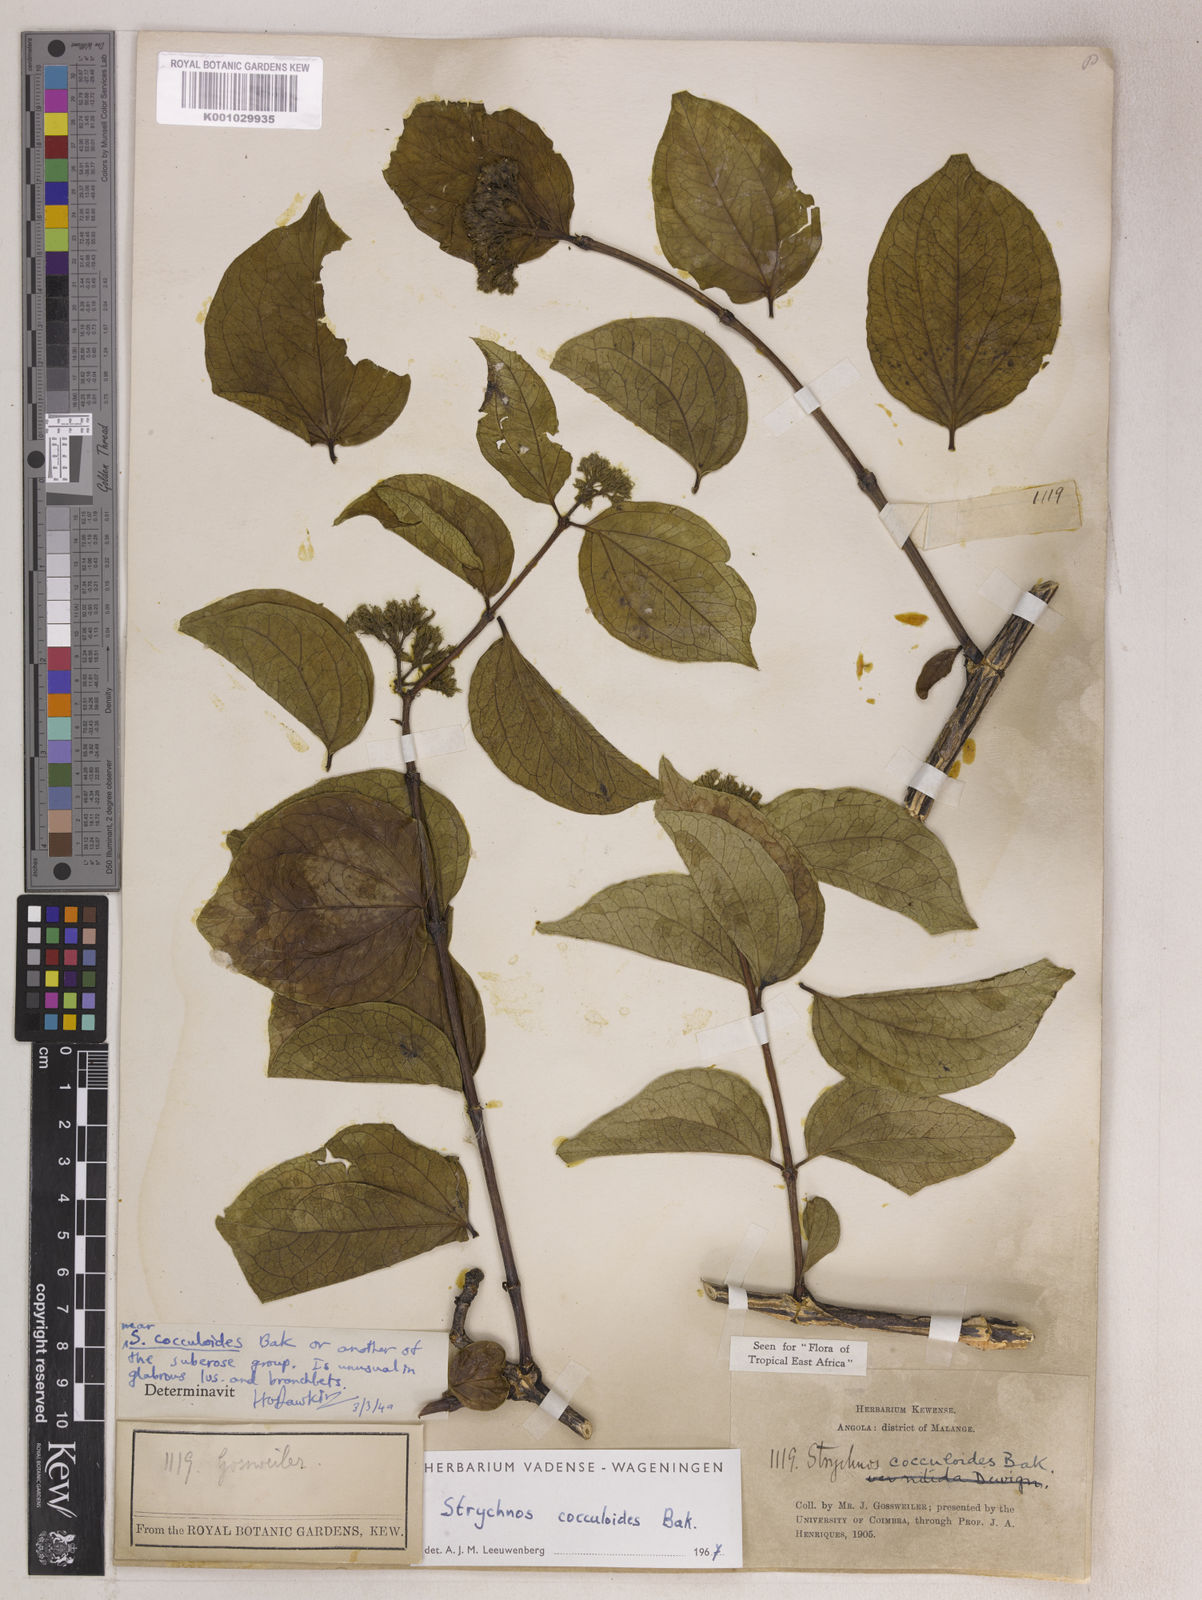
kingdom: Plantae
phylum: Tracheophyta
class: Magnoliopsida
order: Gentianales
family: Loganiaceae
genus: Strychnos
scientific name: Strychnos cocculoides
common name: Corky-bark monkey-orange
